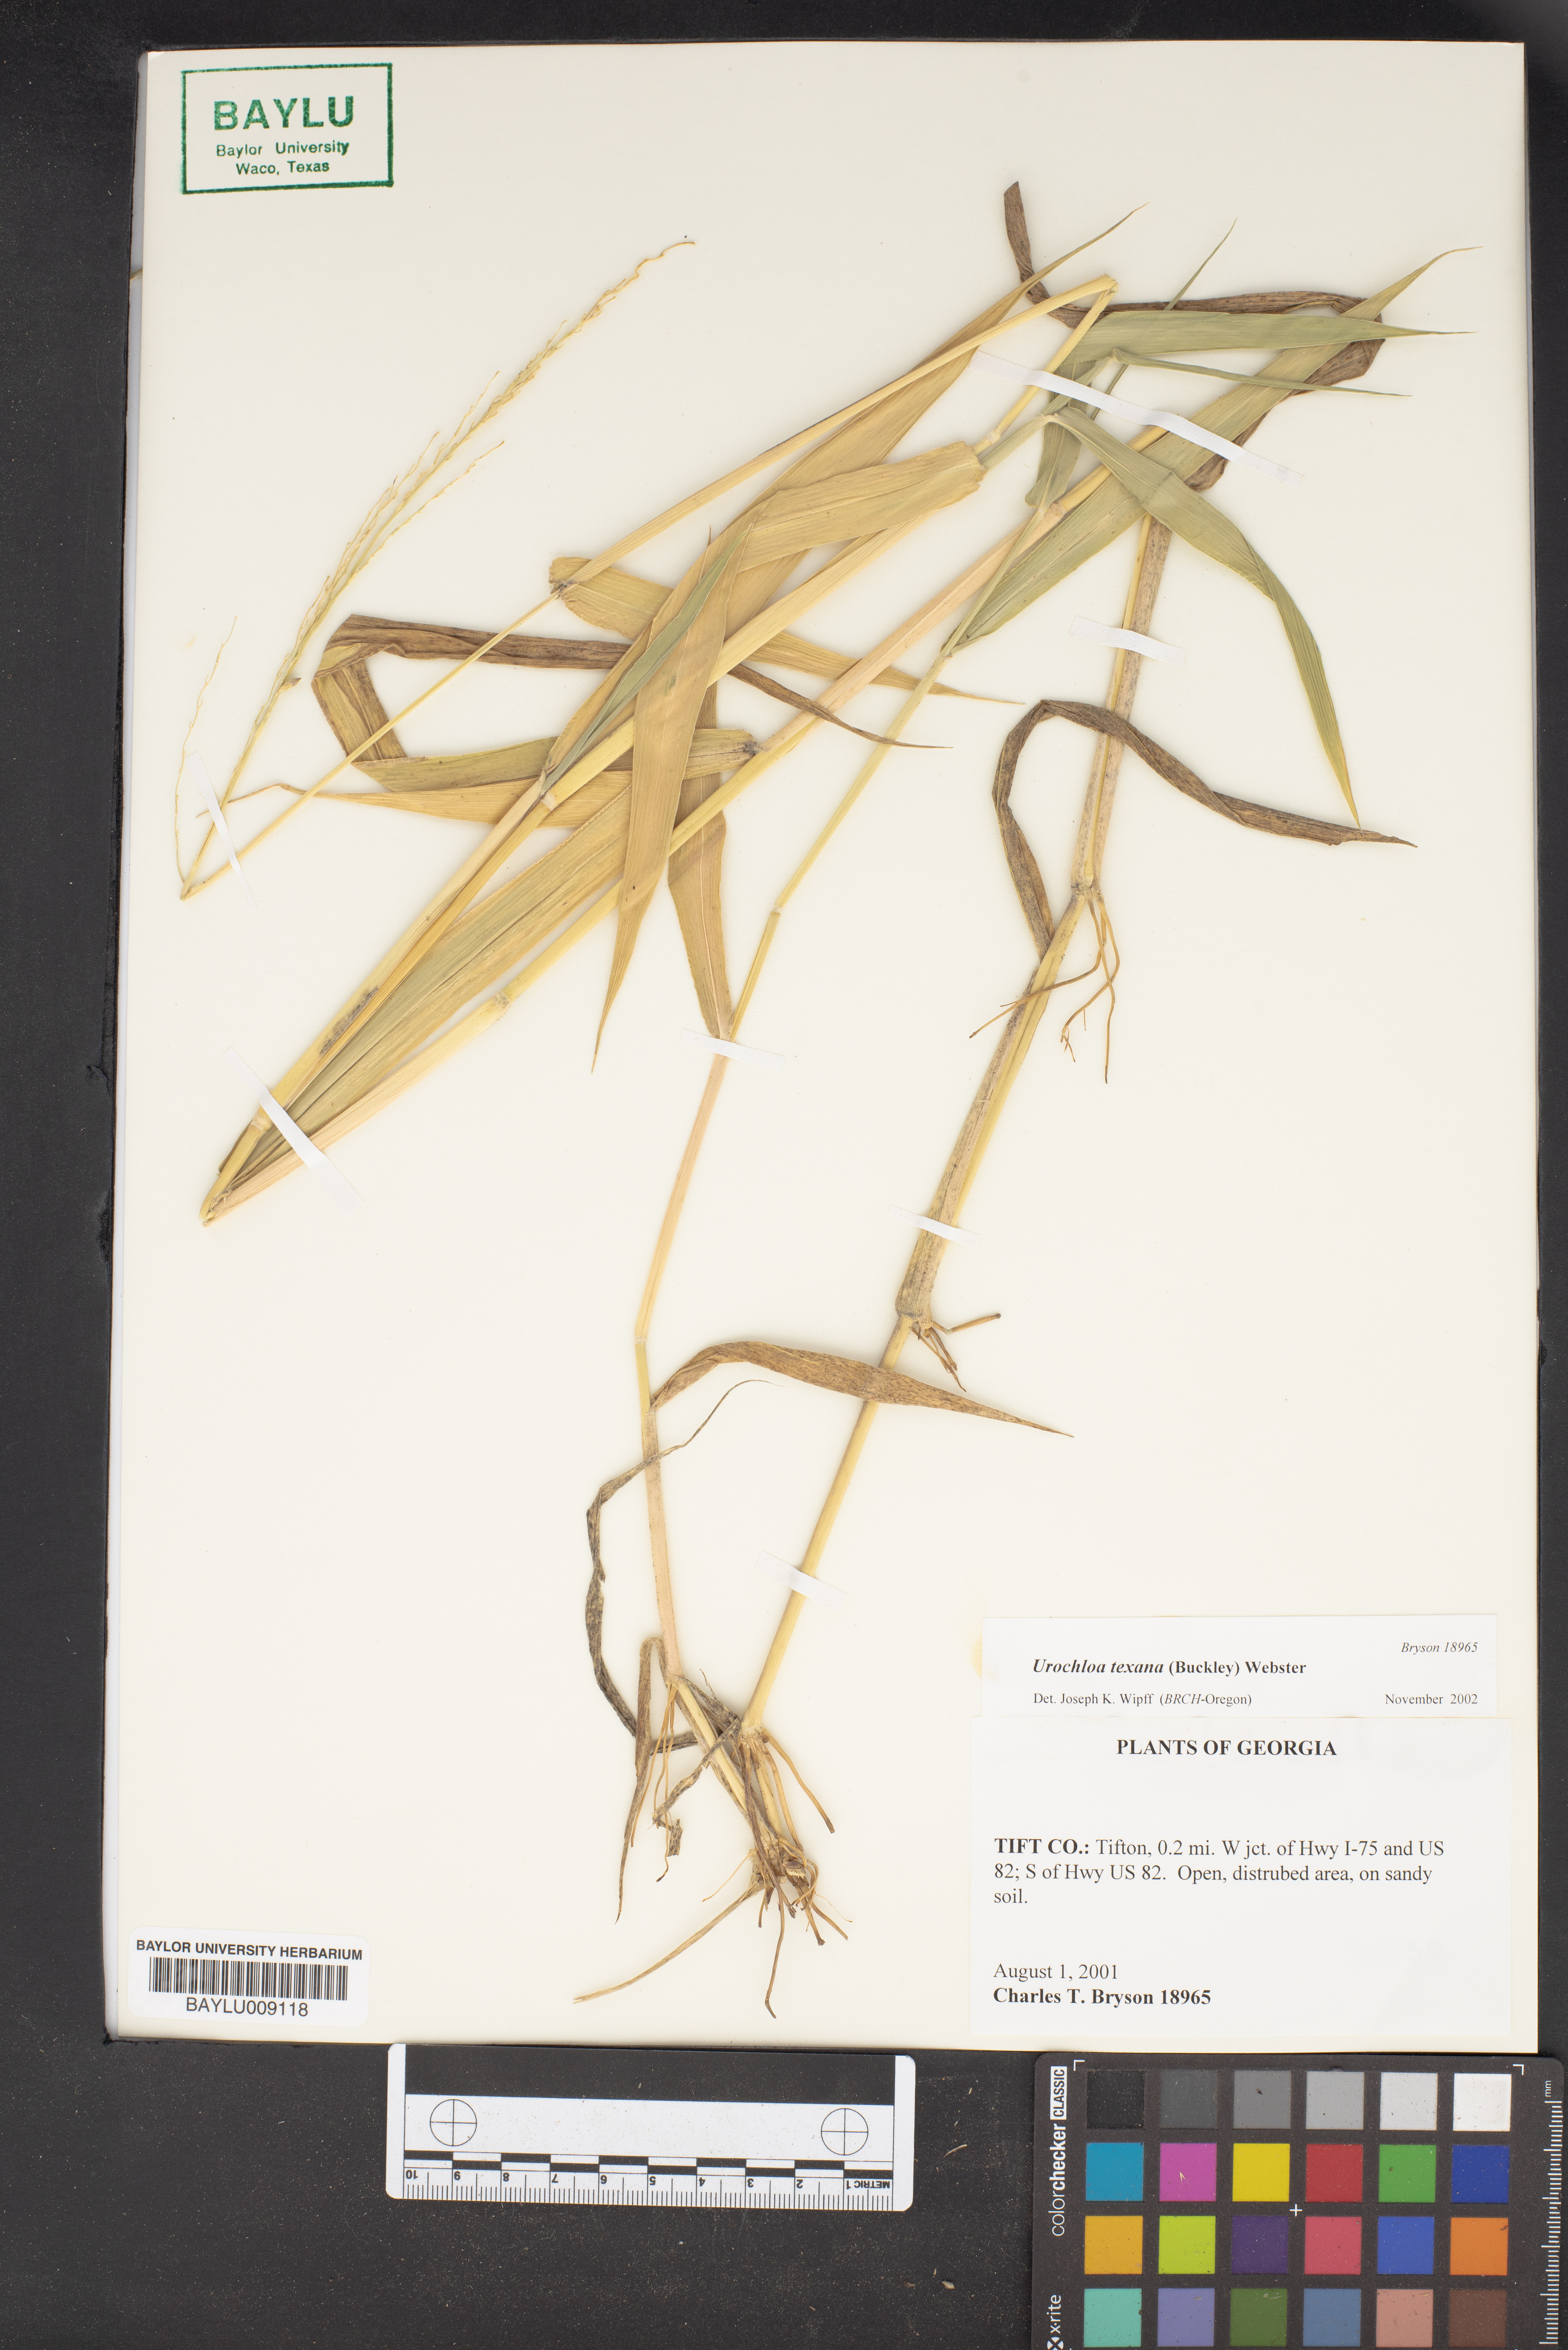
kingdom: Plantae
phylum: Tracheophyta
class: Liliopsida
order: Poales
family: Poaceae
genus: Urochloa
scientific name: Urochloa texana
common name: Texas millet
